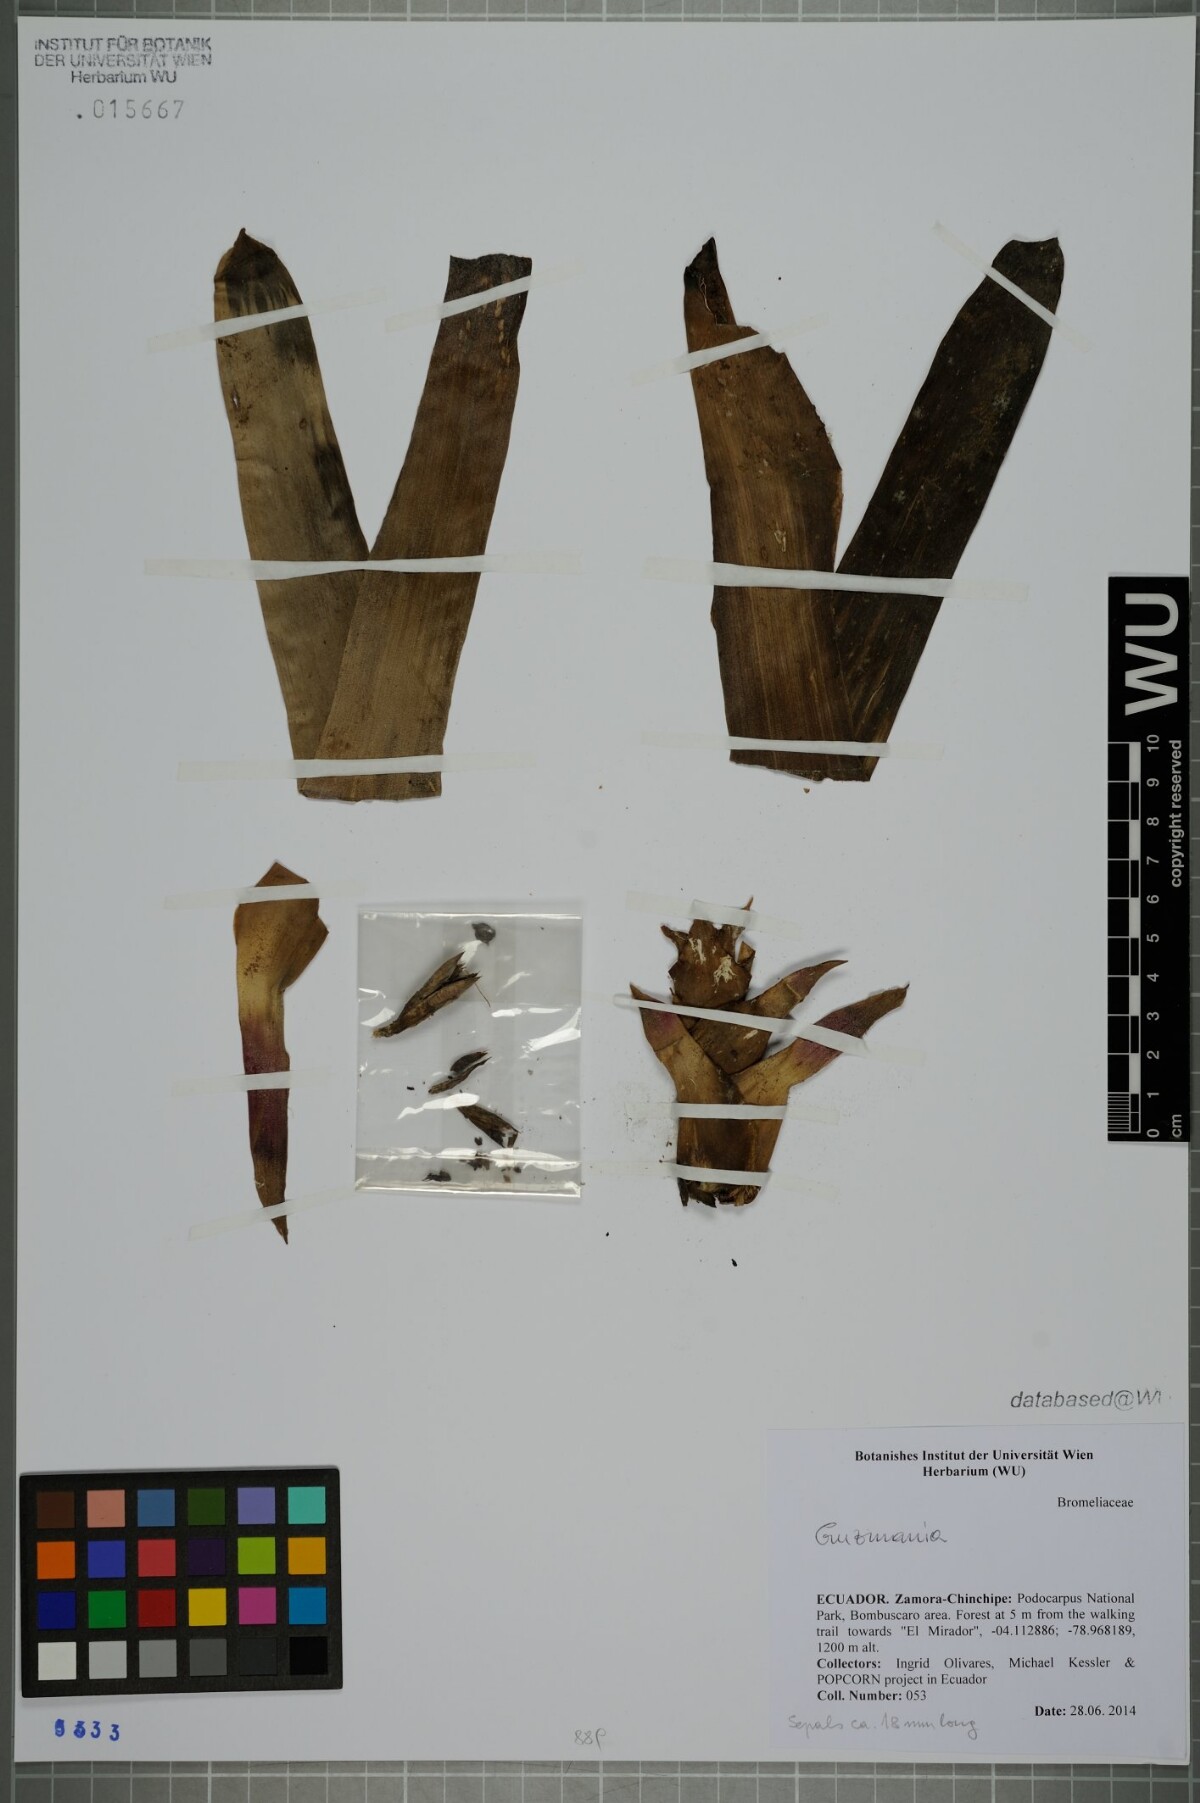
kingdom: Plantae
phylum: Tracheophyta
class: Liliopsida
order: Poales
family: Bromeliaceae
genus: Guzmania
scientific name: Guzmania
